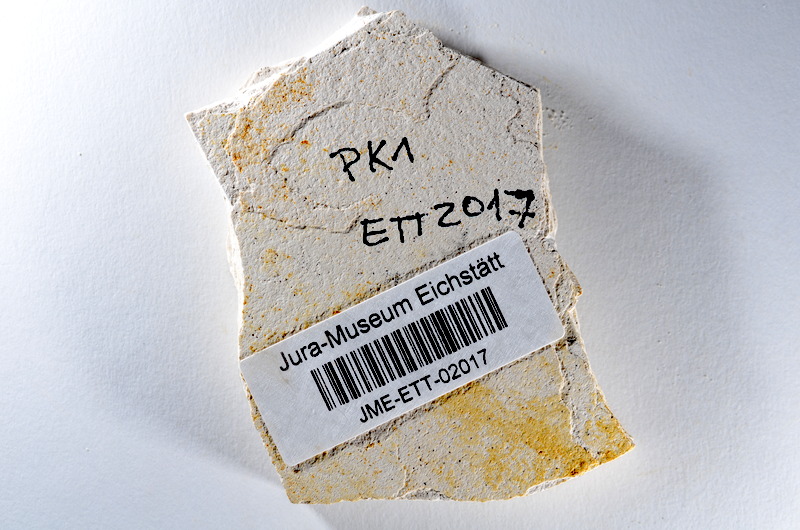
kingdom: Animalia
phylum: Chordata
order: Salmoniformes
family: Orthogonikleithridae
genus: Orthogonikleithrus
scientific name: Orthogonikleithrus hoelli
